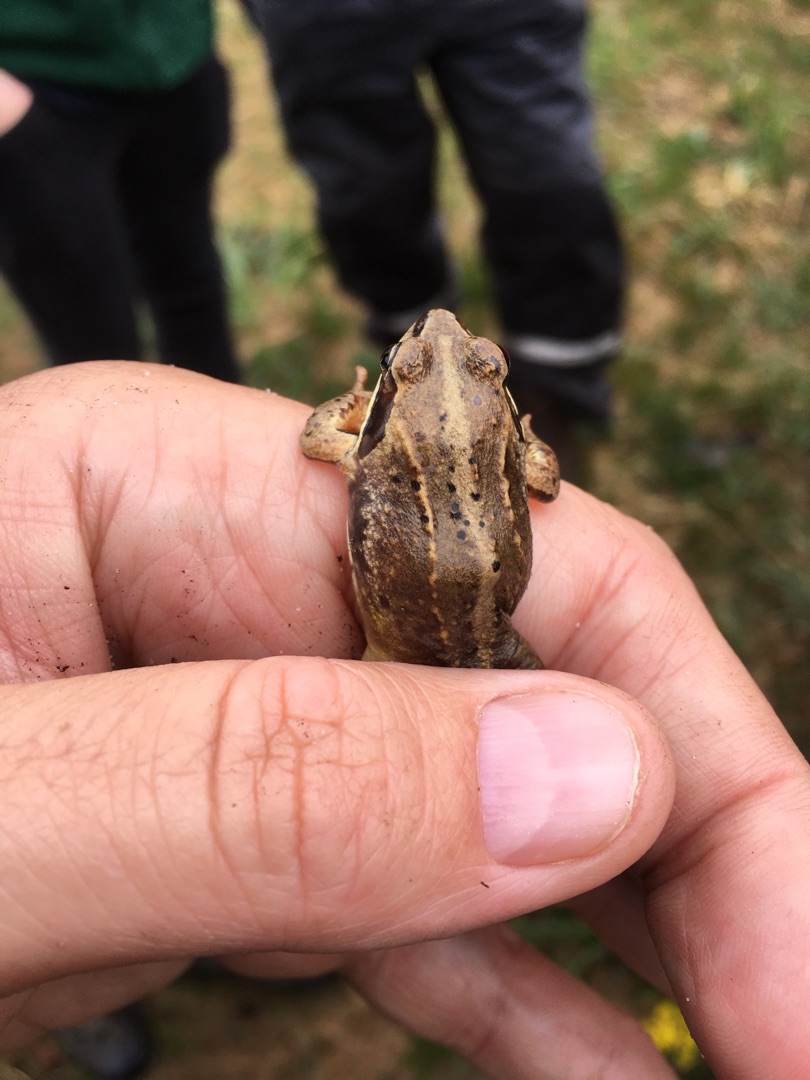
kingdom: Animalia
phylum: Chordata
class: Amphibia
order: Anura
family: Ranidae
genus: Rana
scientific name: Rana arvalis
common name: Spidssnudet frø
